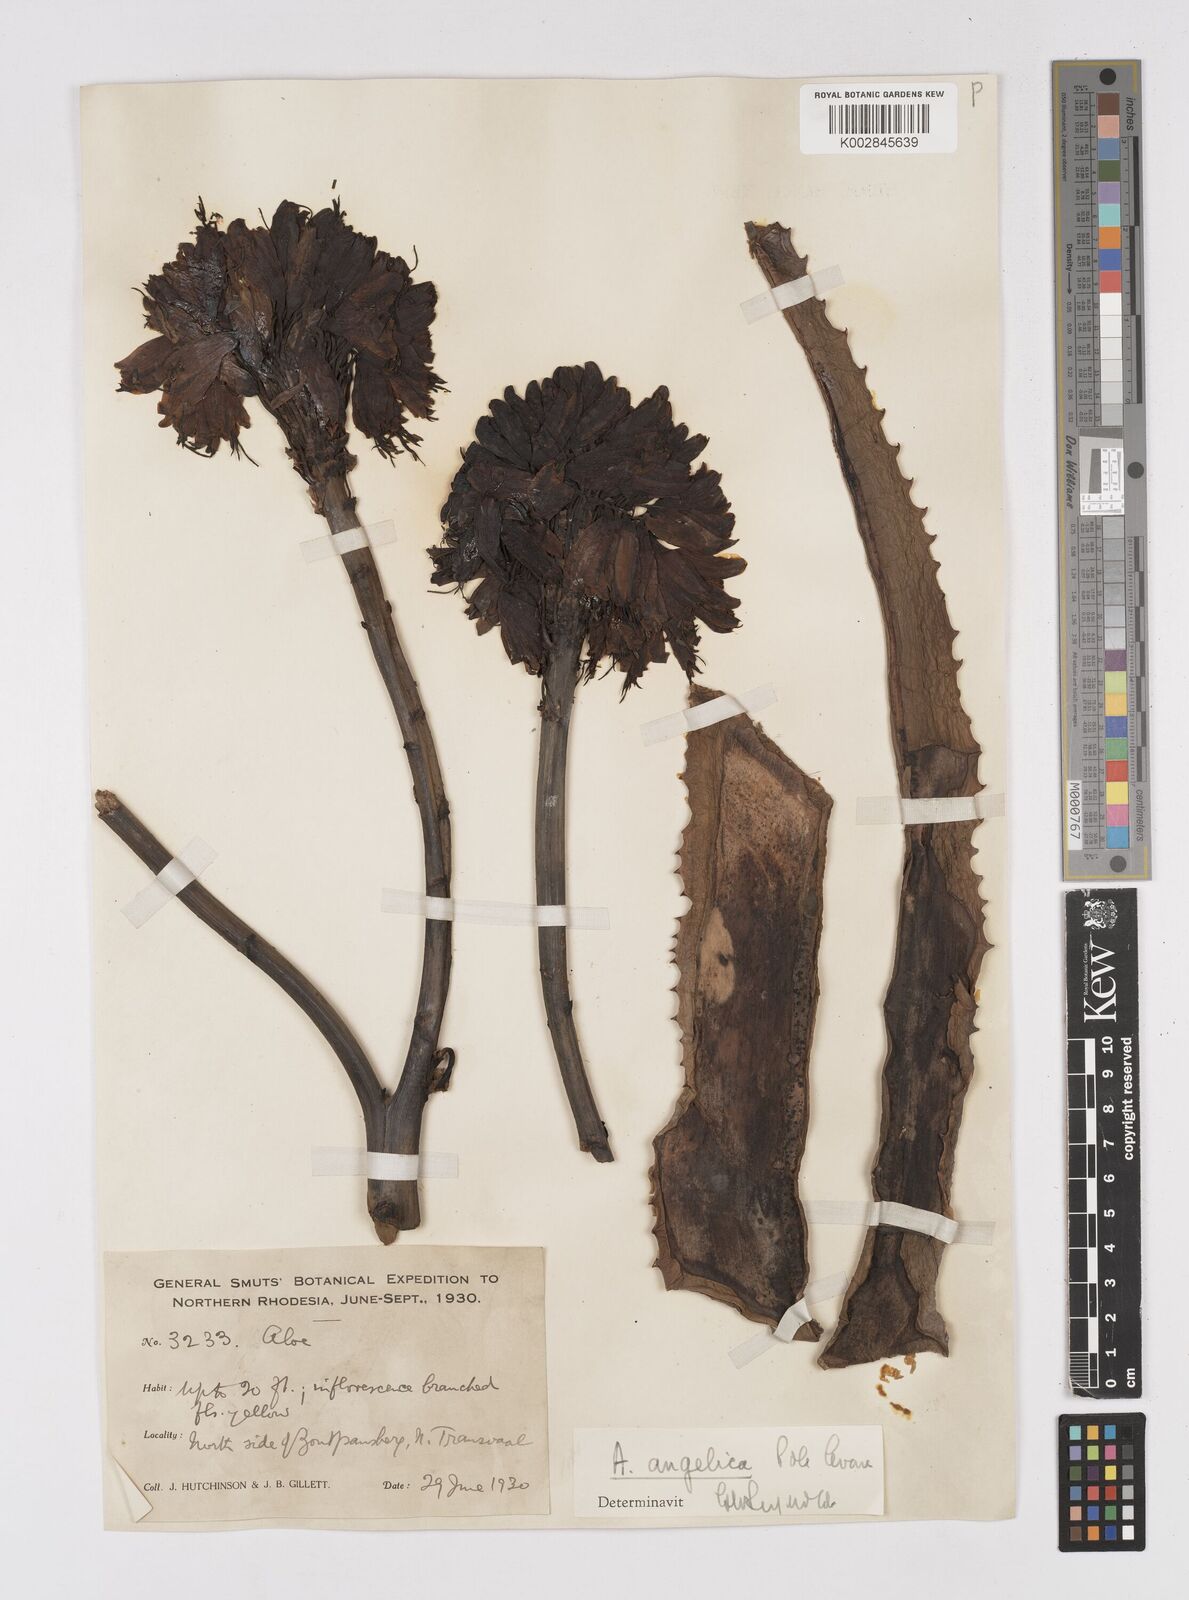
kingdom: Plantae
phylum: Tracheophyta
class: Liliopsida
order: Asparagales
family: Asphodelaceae
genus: Aloe
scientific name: Aloe angelica
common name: Wylliespoort aloe
